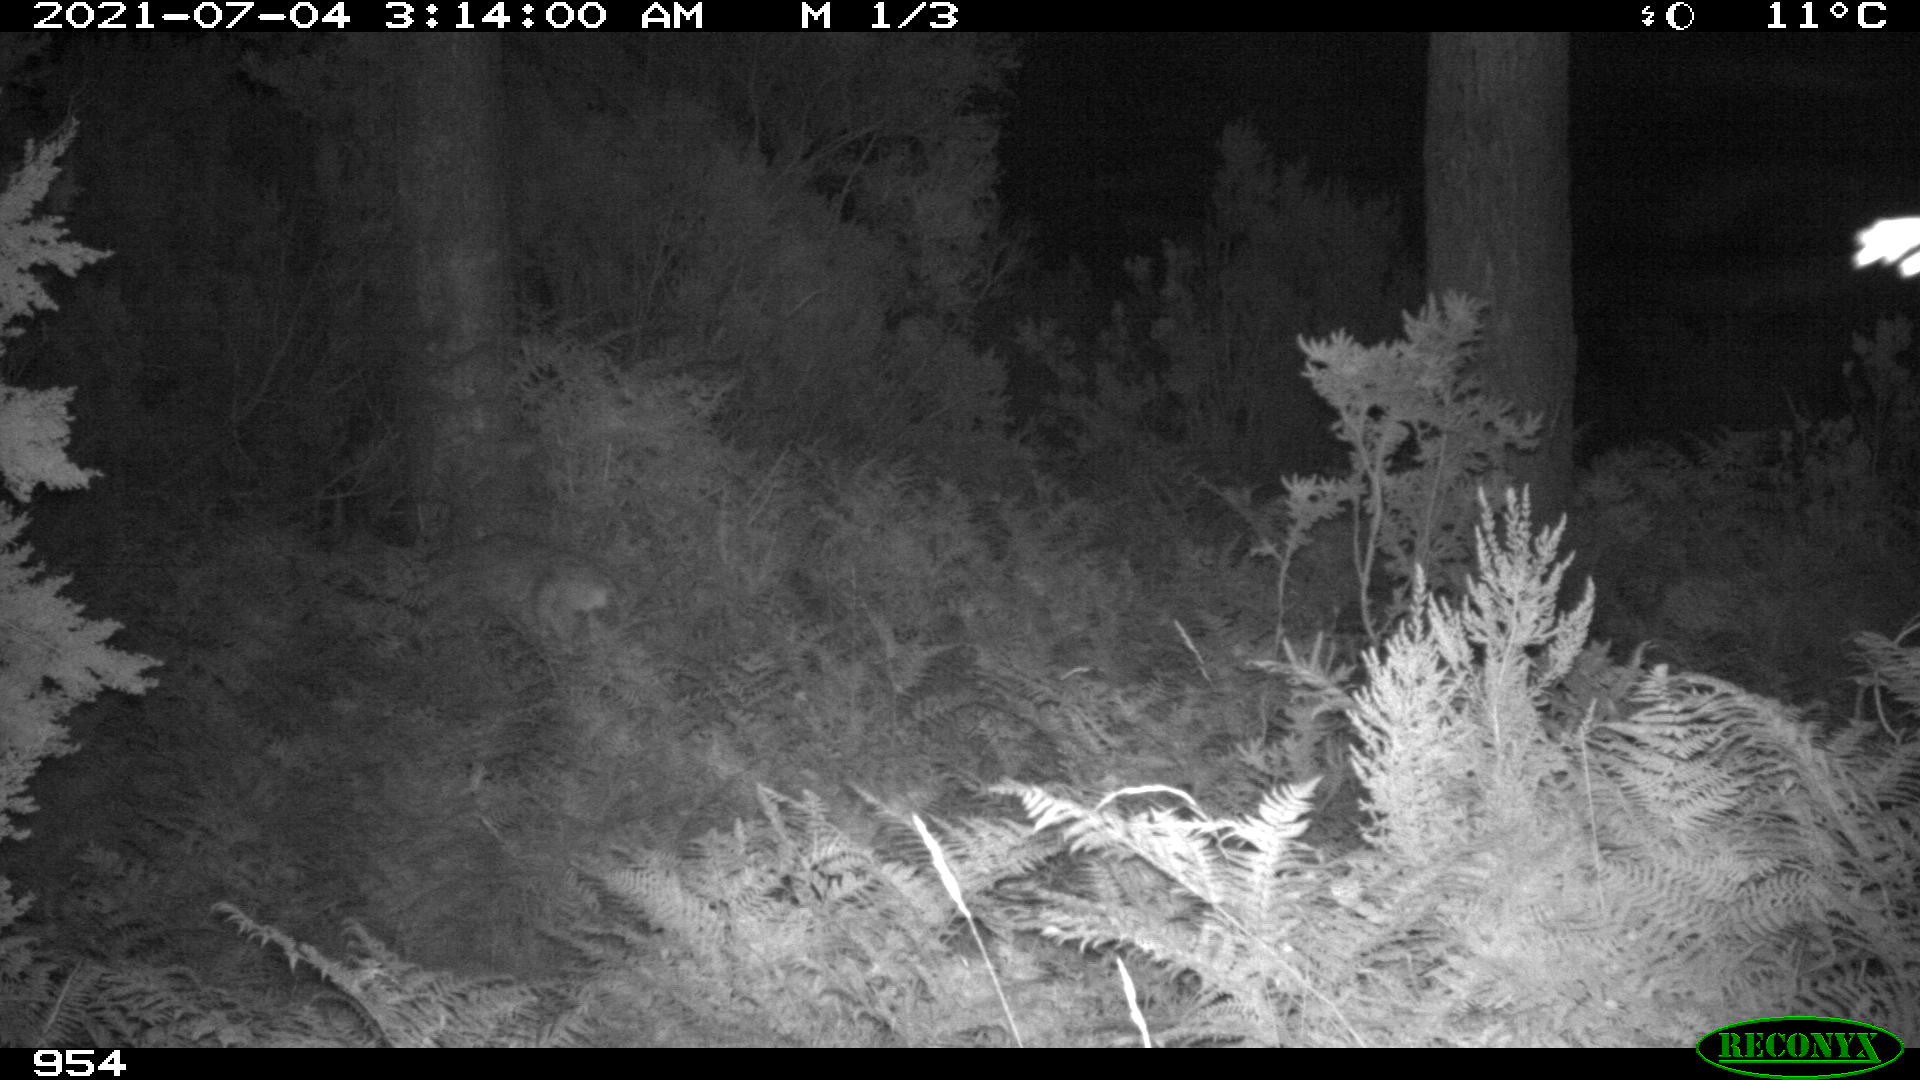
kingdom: Animalia
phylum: Chordata
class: Mammalia
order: Artiodactyla
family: Cervidae
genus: Capreolus
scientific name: Capreolus capreolus
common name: Western roe deer
